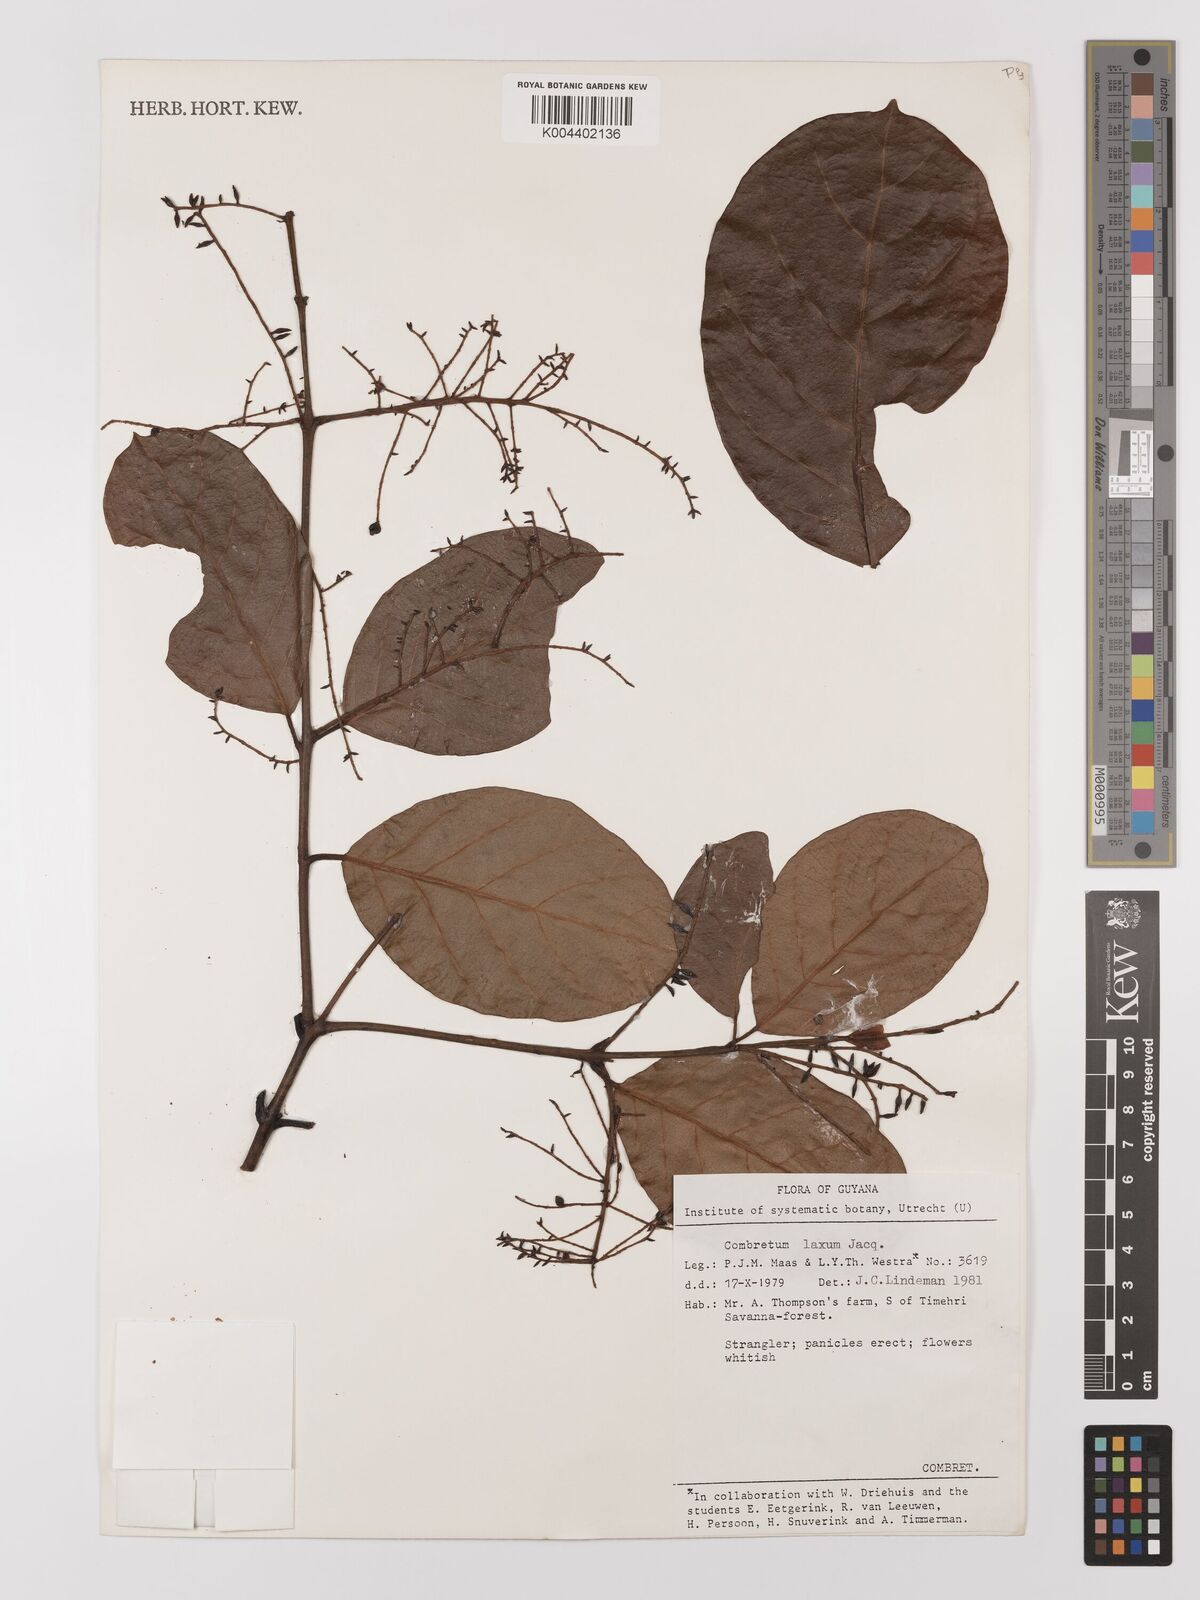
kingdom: Plantae
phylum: Tracheophyta
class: Magnoliopsida
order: Myrtales
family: Combretaceae
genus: Combretum
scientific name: Combretum
